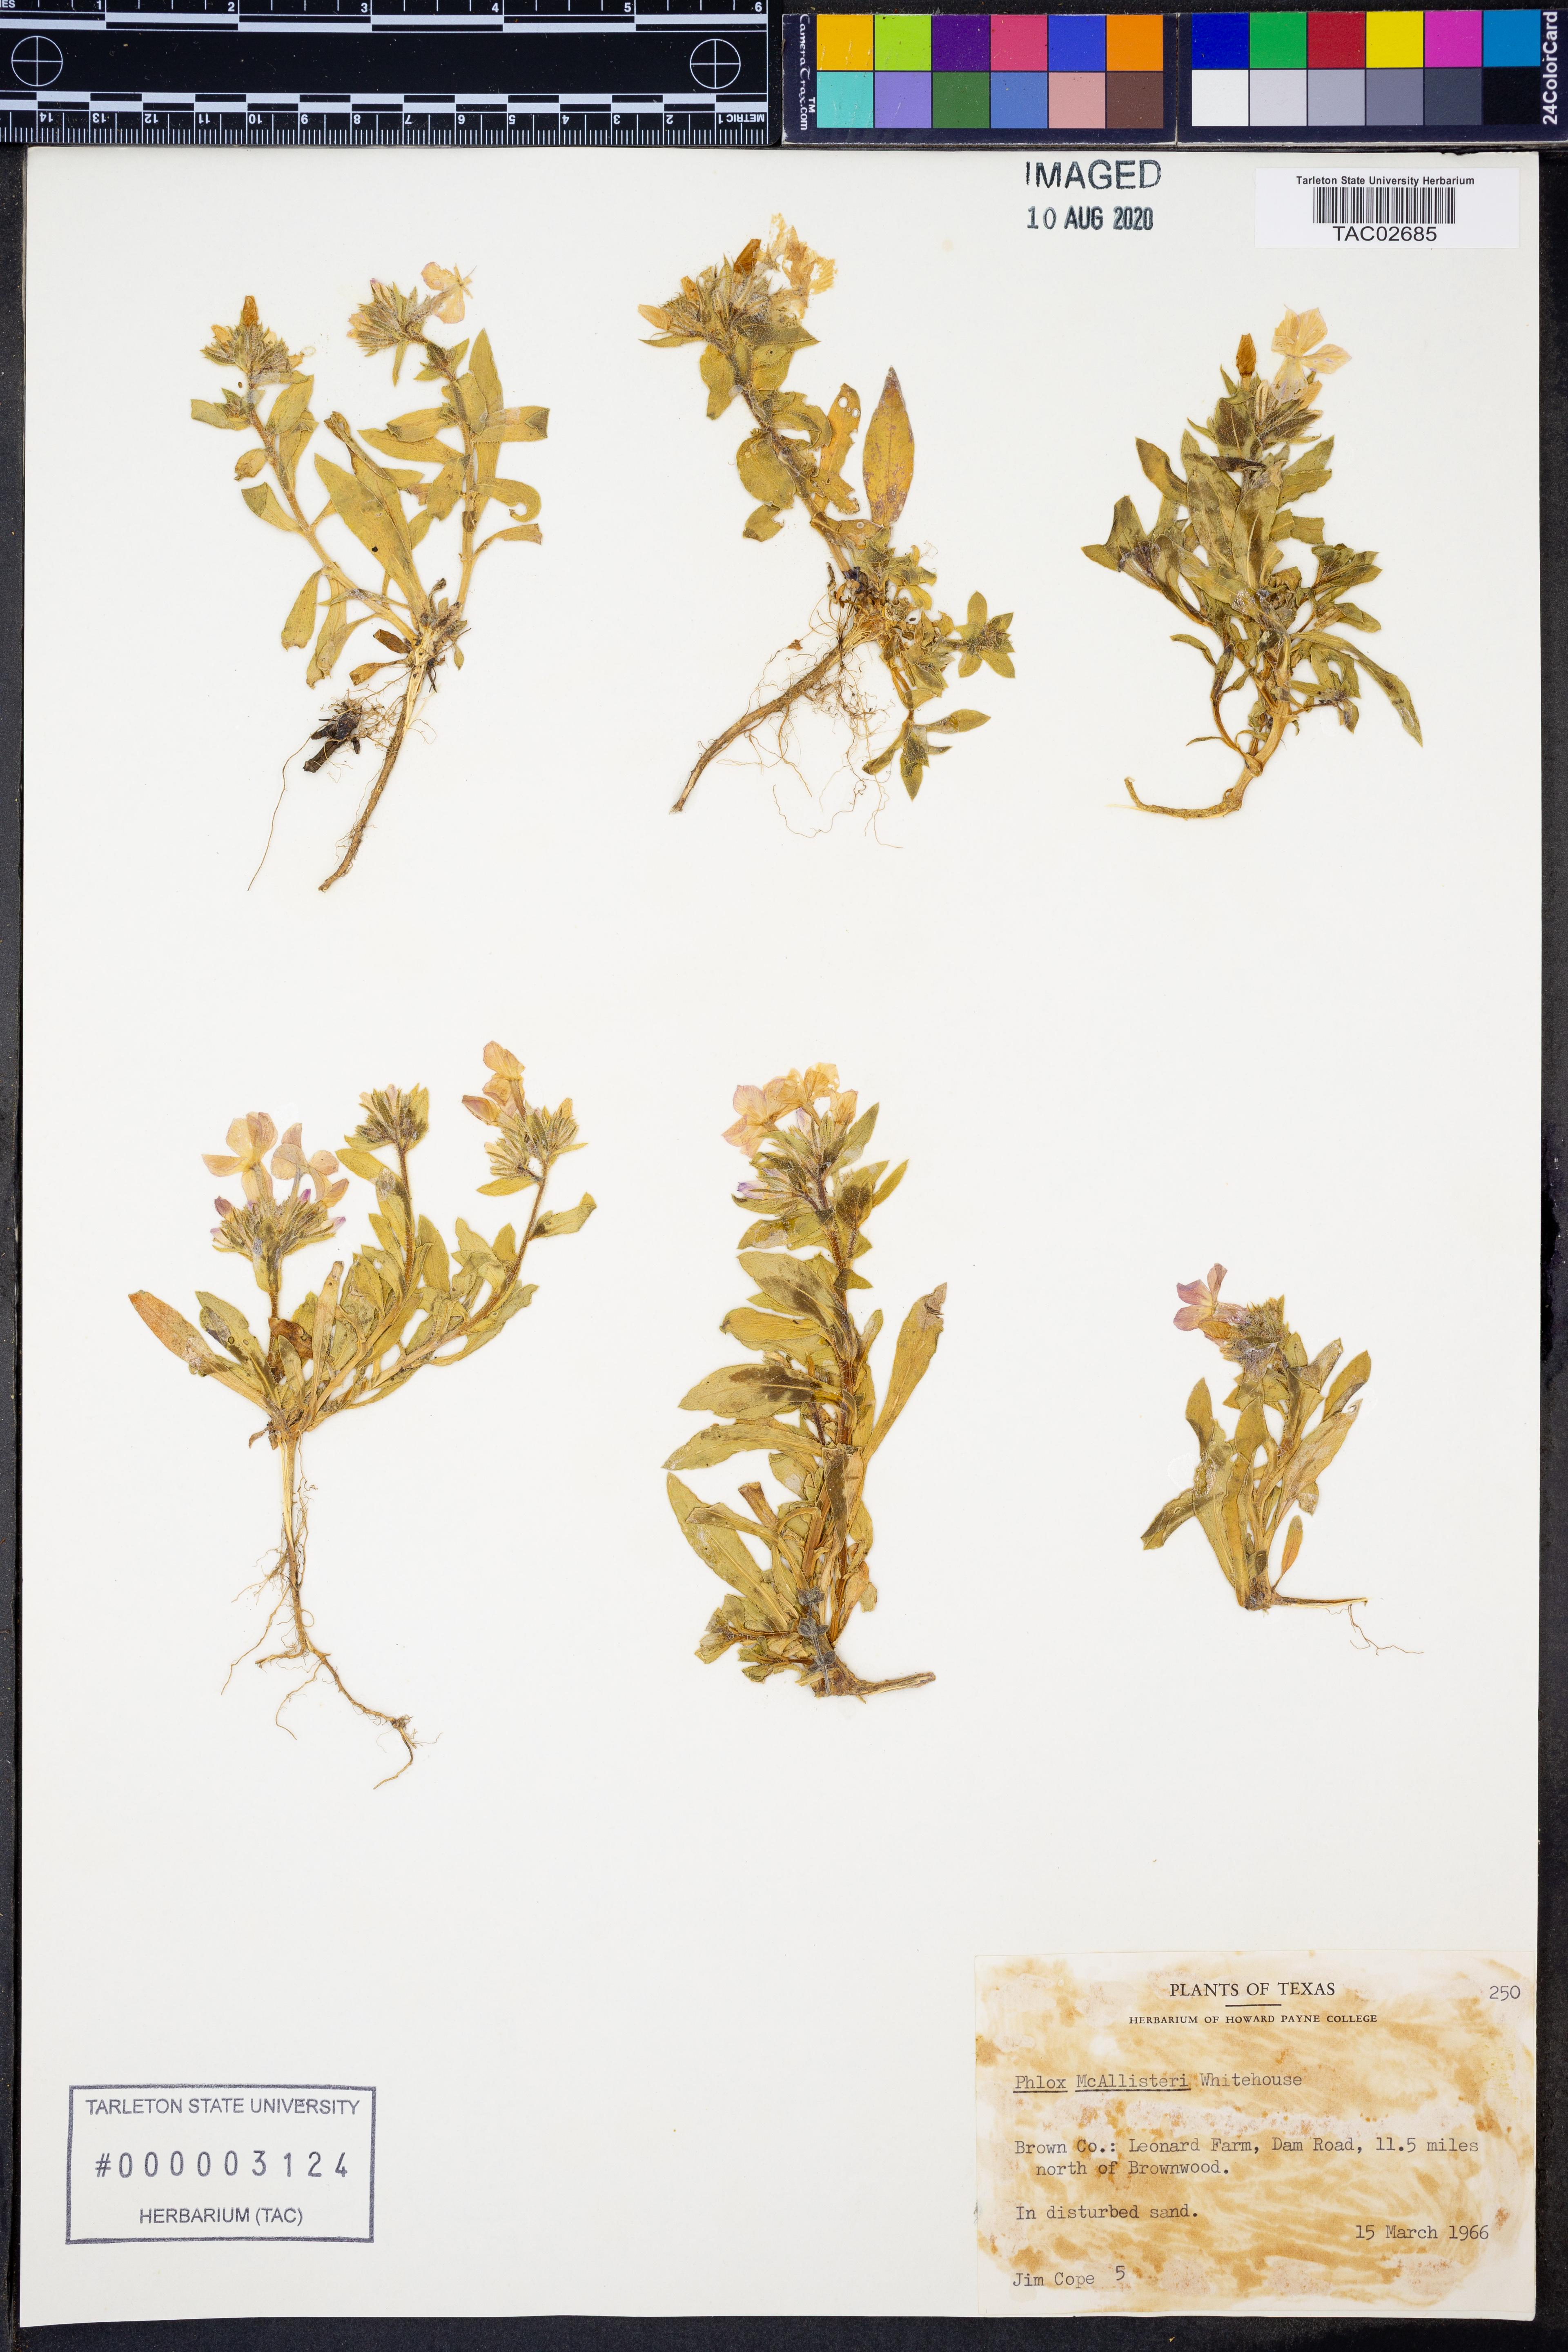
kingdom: Plantae
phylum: Tracheophyta
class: Magnoliopsida
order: Ericales
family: Polemoniaceae
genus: Phlox
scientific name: Phlox drummondii
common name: Drummond's phlox
